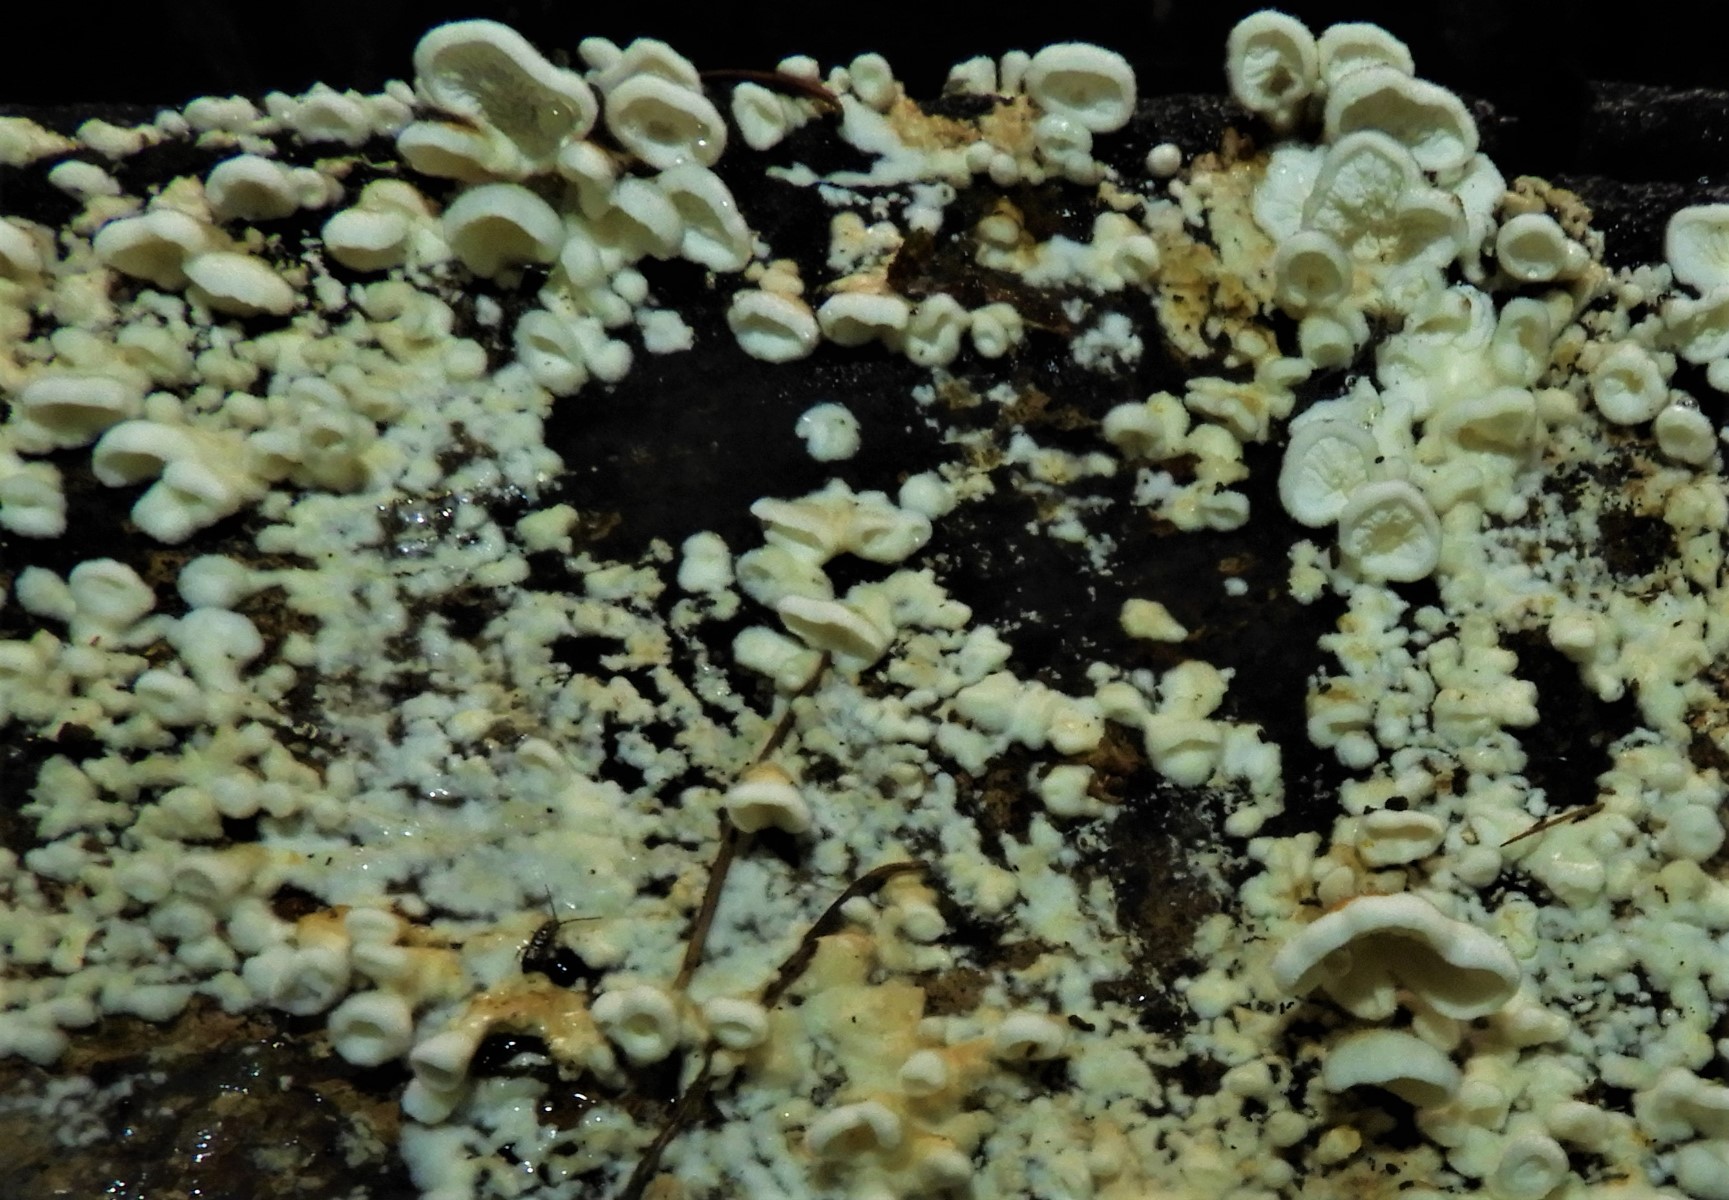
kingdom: Fungi
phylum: Basidiomycota
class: Agaricomycetes
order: Amylocorticiales
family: Amylocorticiaceae
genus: Plicaturopsis
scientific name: Plicaturopsis crispa
